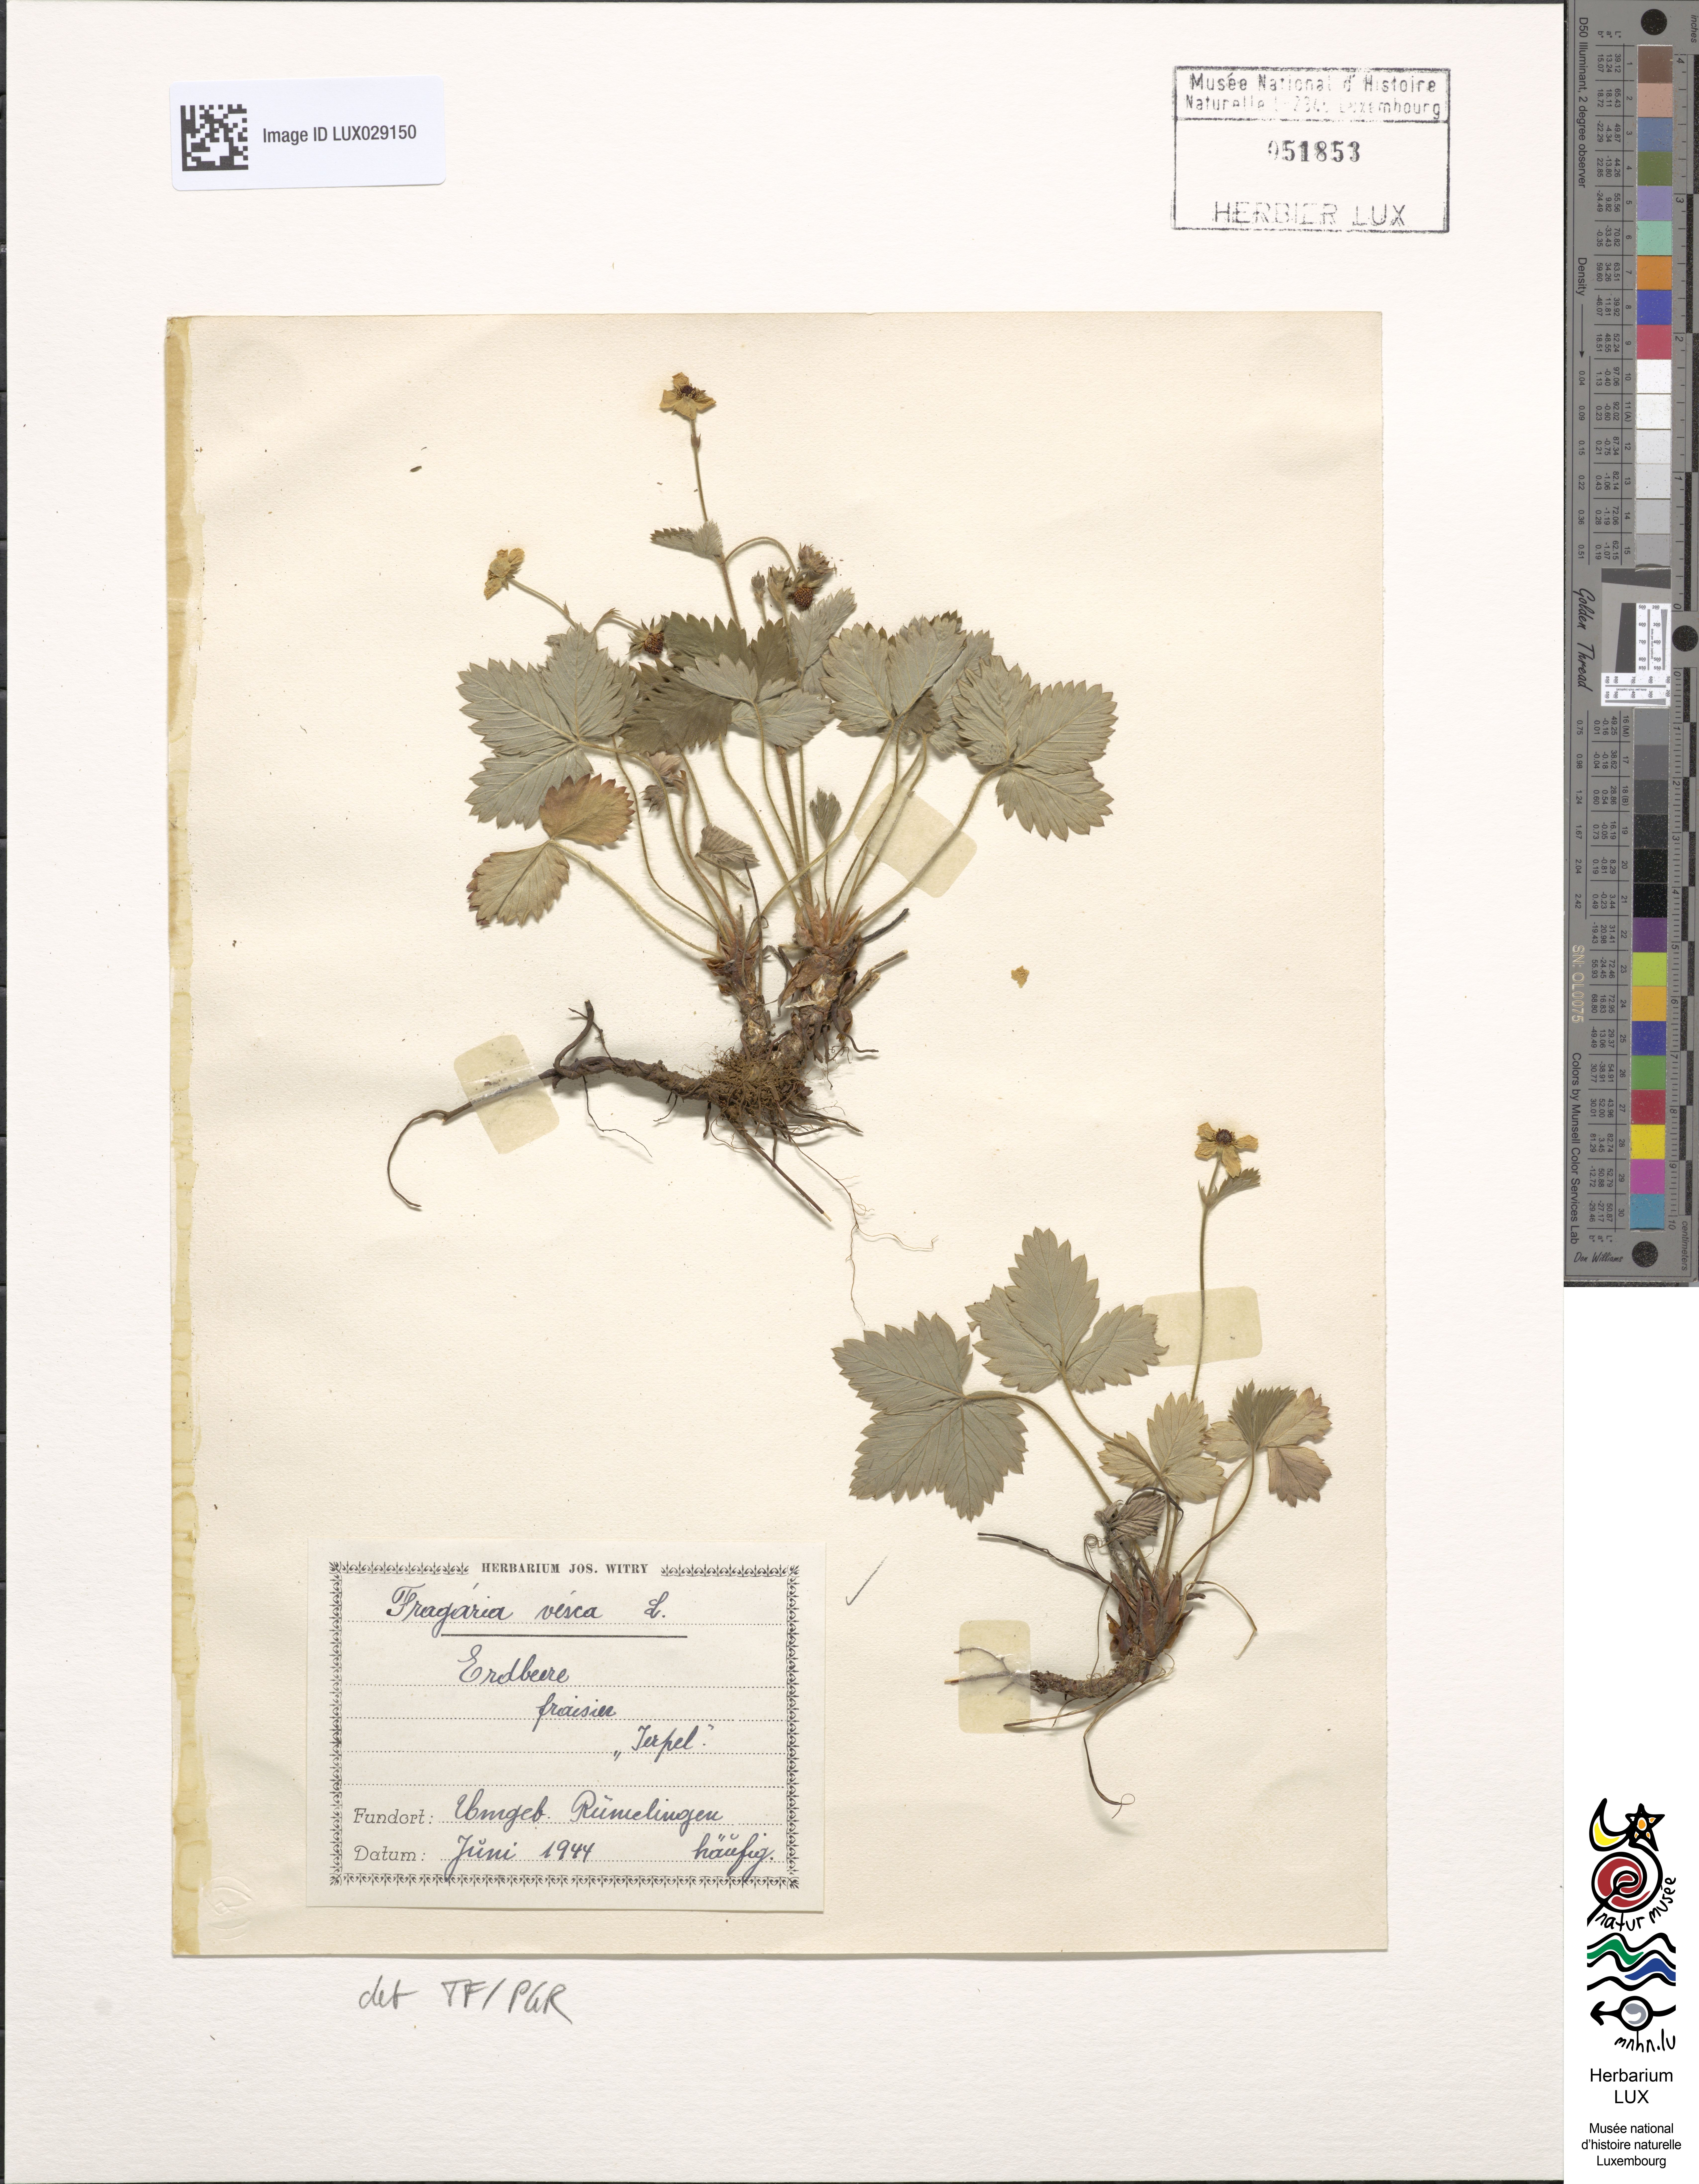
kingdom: Plantae
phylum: Tracheophyta
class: Magnoliopsida
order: Rosales
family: Rosaceae
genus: Fragaria
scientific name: Fragaria vesca
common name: Wild strawberry
